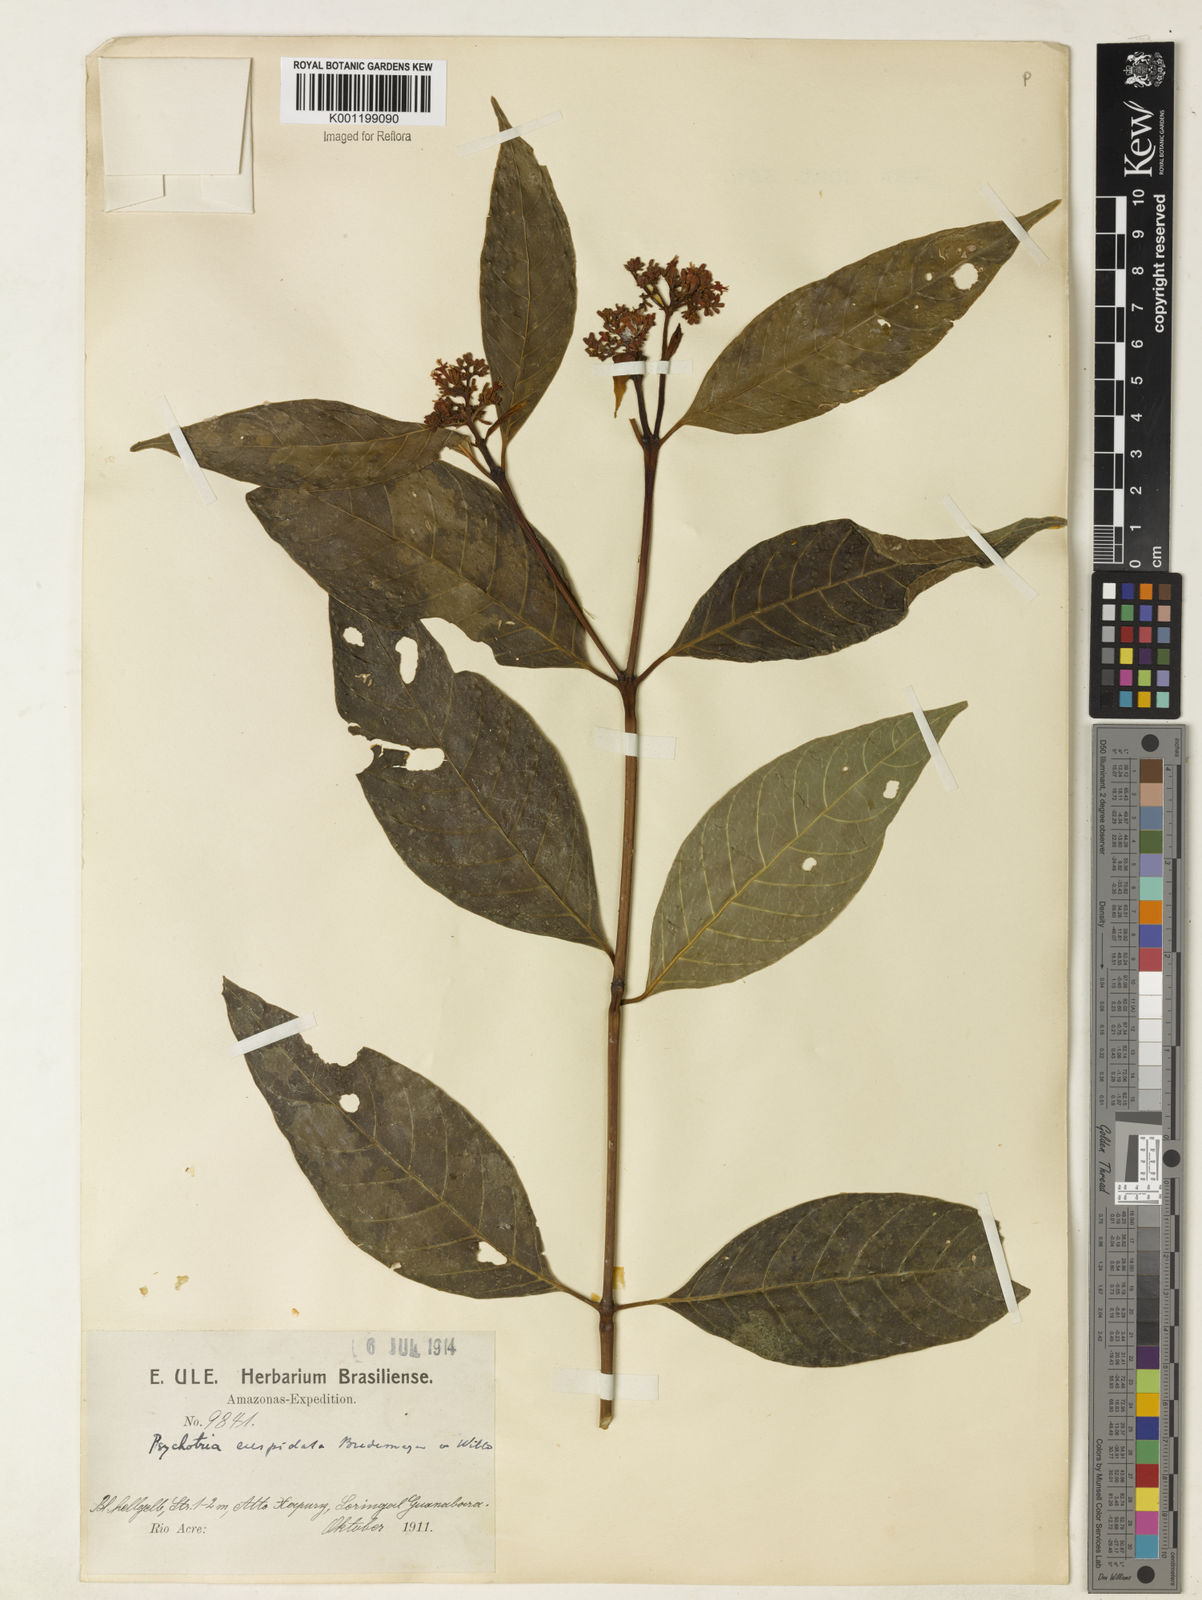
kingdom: Plantae
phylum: Tracheophyta
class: Magnoliopsida
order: Gentianales
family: Rubiaceae
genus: Palicourea
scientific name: Palicourea cuspidata
